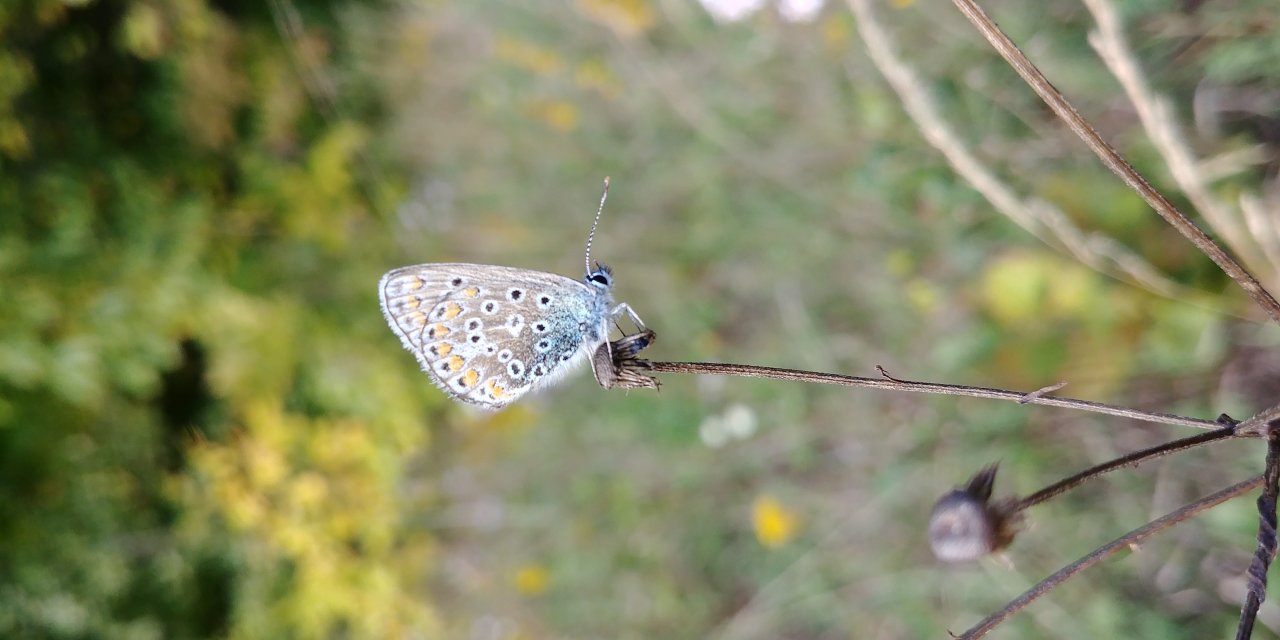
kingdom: Animalia
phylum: Arthropoda
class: Insecta
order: Lepidoptera
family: Lycaenidae
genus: Polyommatus
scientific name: Polyommatus icarus
